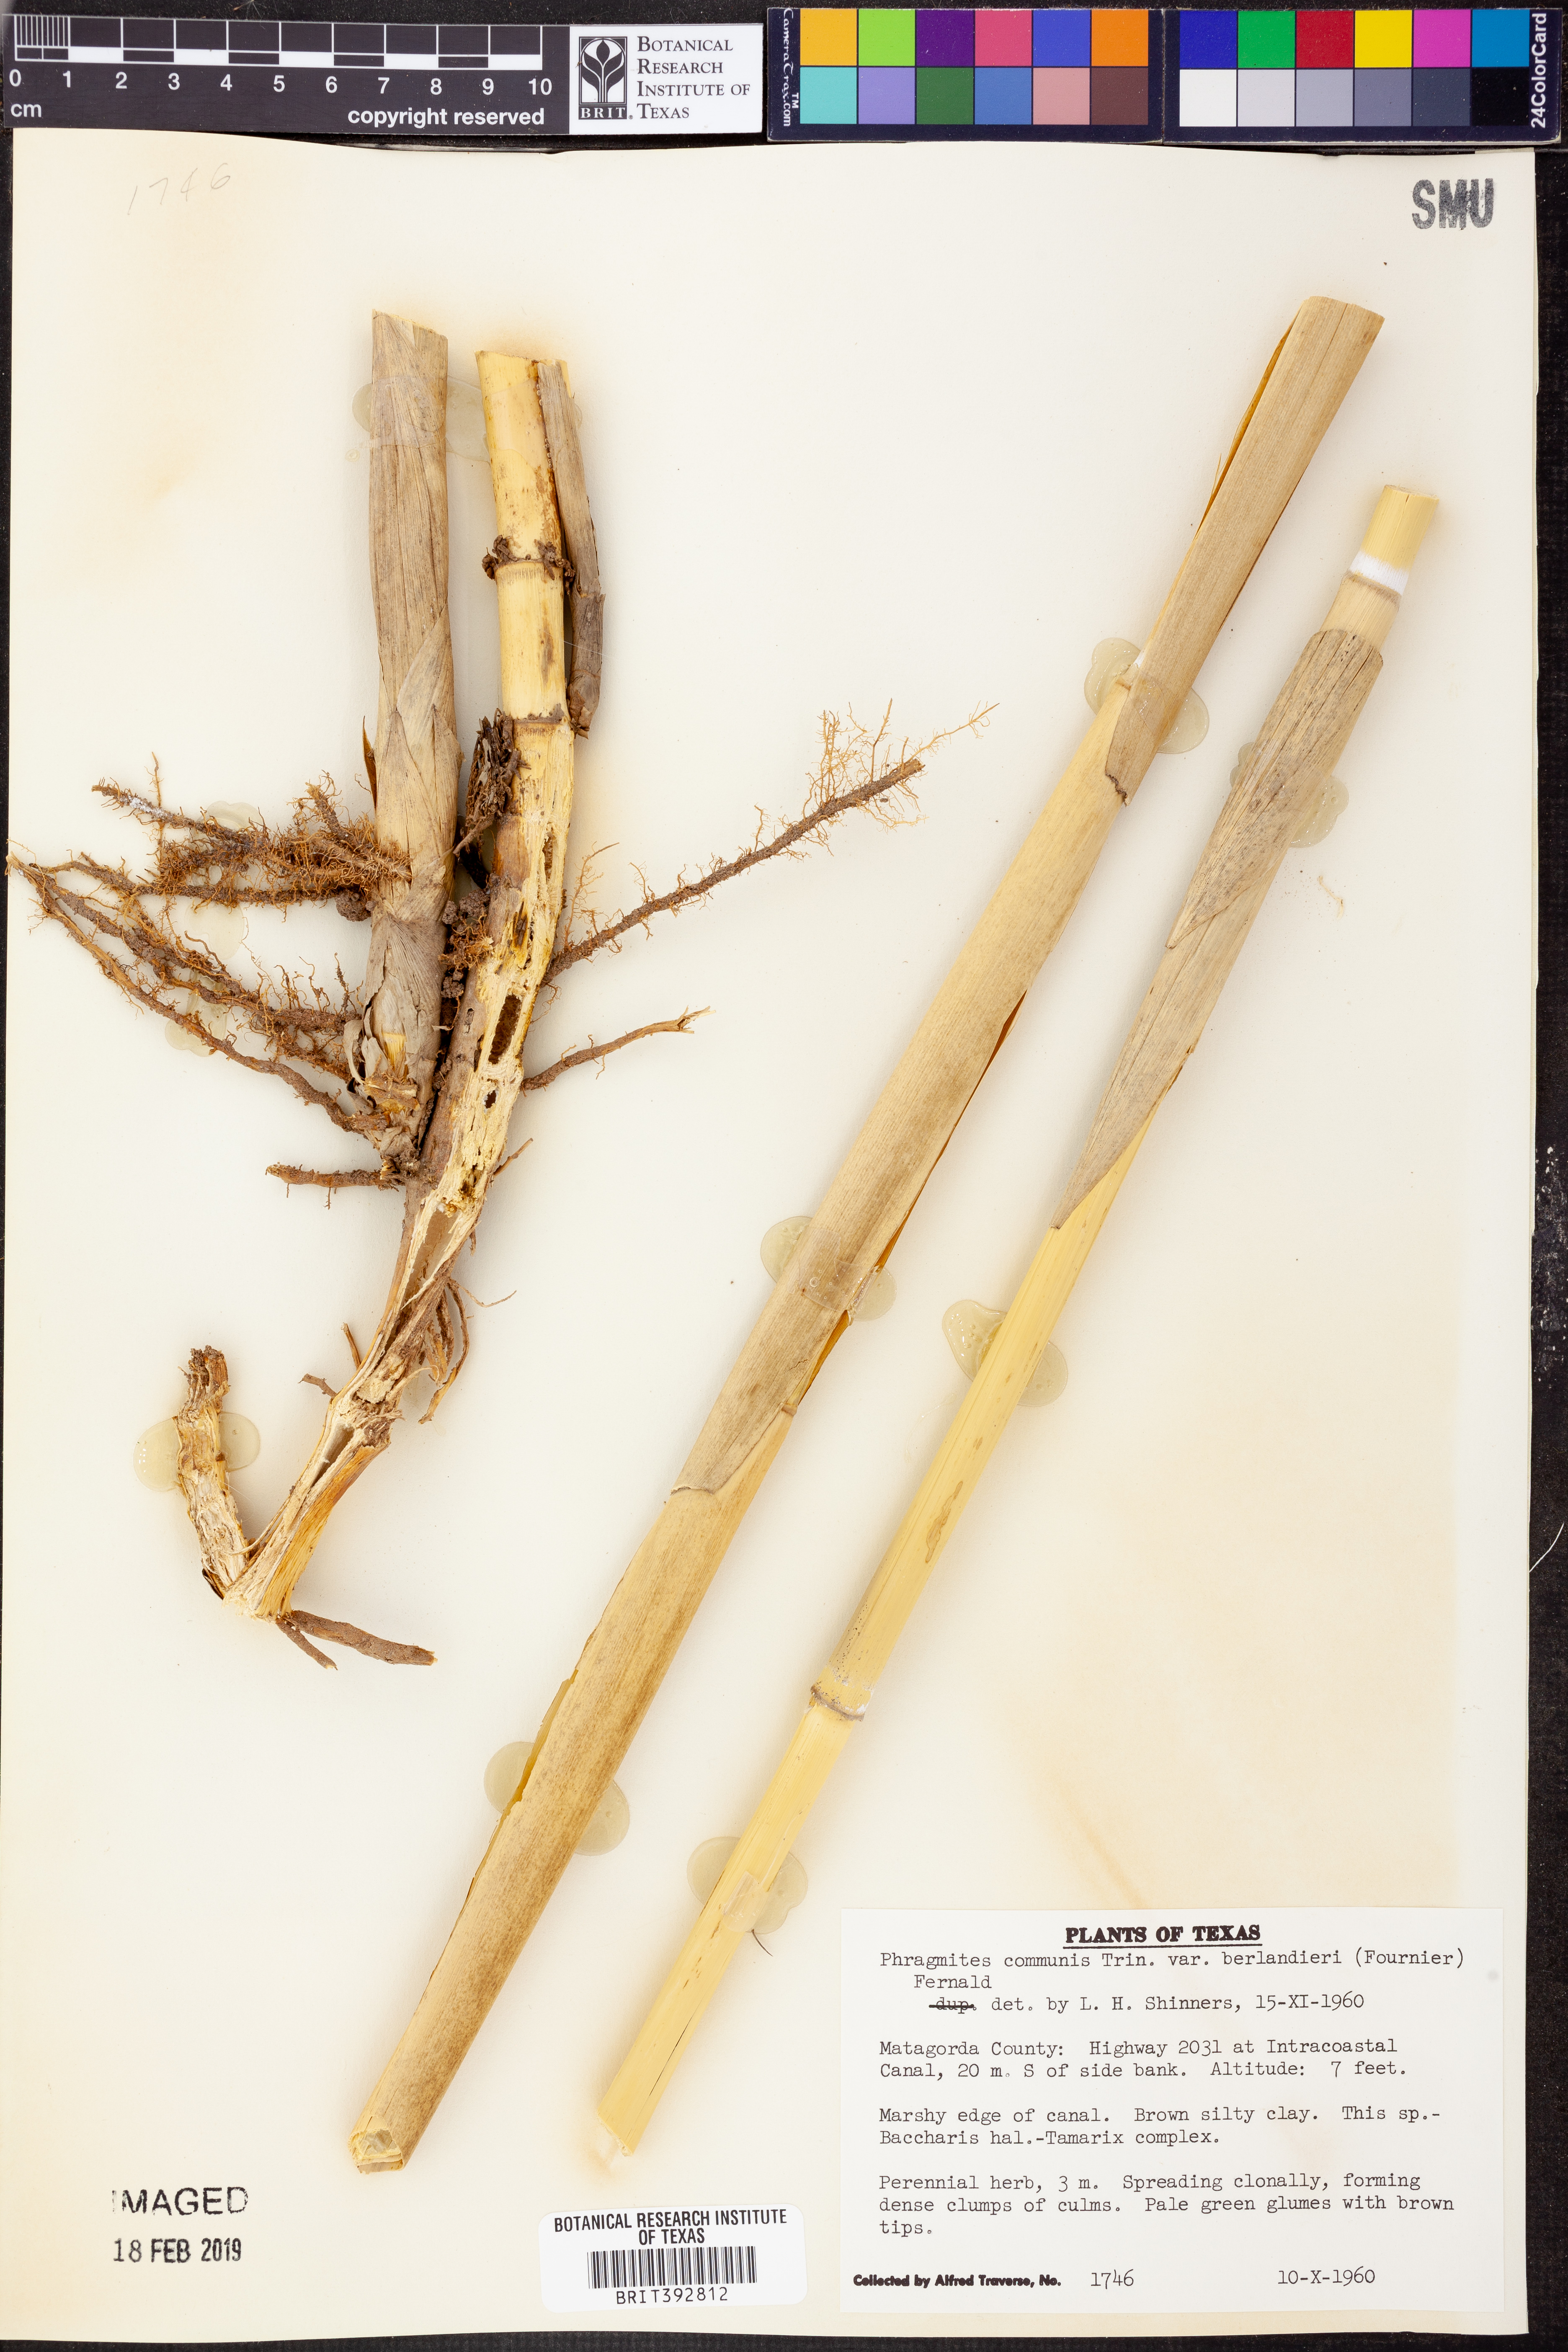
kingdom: Plantae
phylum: Tracheophyta
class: Liliopsida
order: Poales
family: Poaceae
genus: Phragmites
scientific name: Phragmites australis
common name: Common reed
